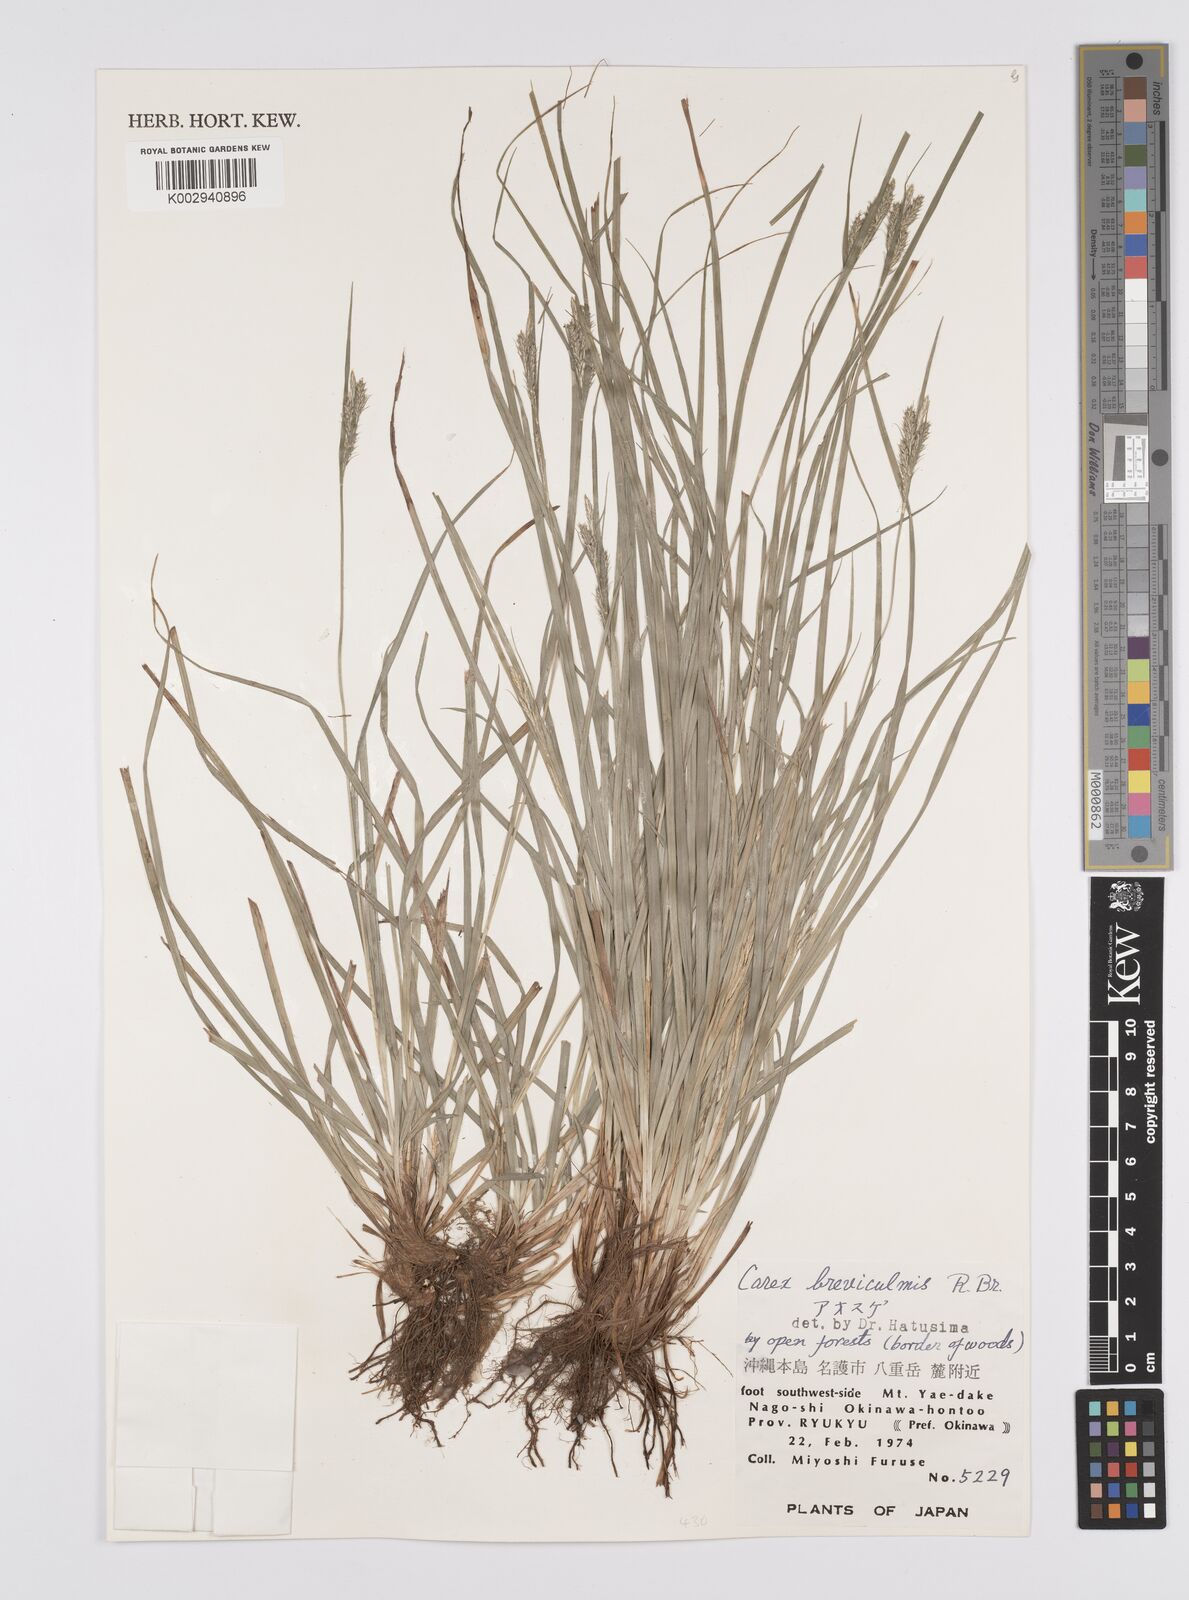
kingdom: Plantae
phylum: Tracheophyta
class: Liliopsida
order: Poales
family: Cyperaceae
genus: Carex
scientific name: Carex breviculmis
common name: Asian shortstem sedge
